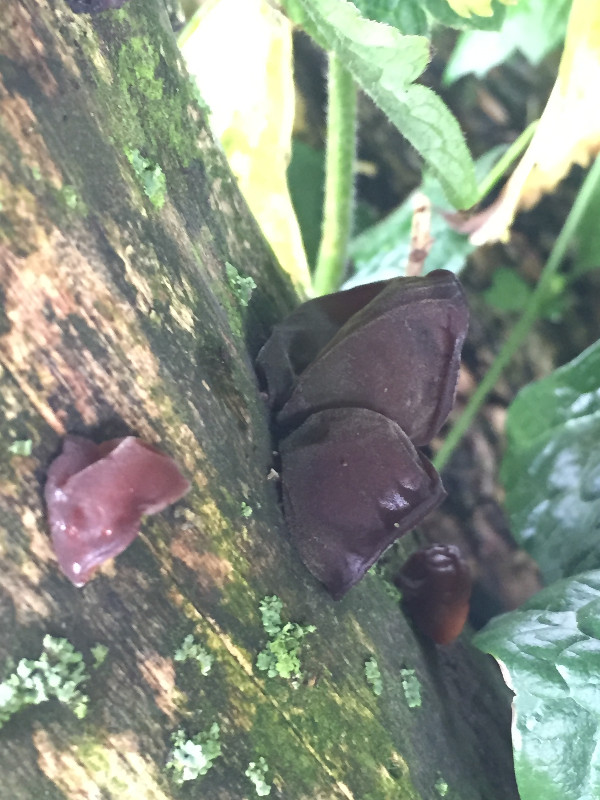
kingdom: Fungi
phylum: Basidiomycota
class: Agaricomycetes
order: Auriculariales
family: Auriculariaceae
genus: Auricularia
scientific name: Auricularia auricula-judae
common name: almindelig judasøre
